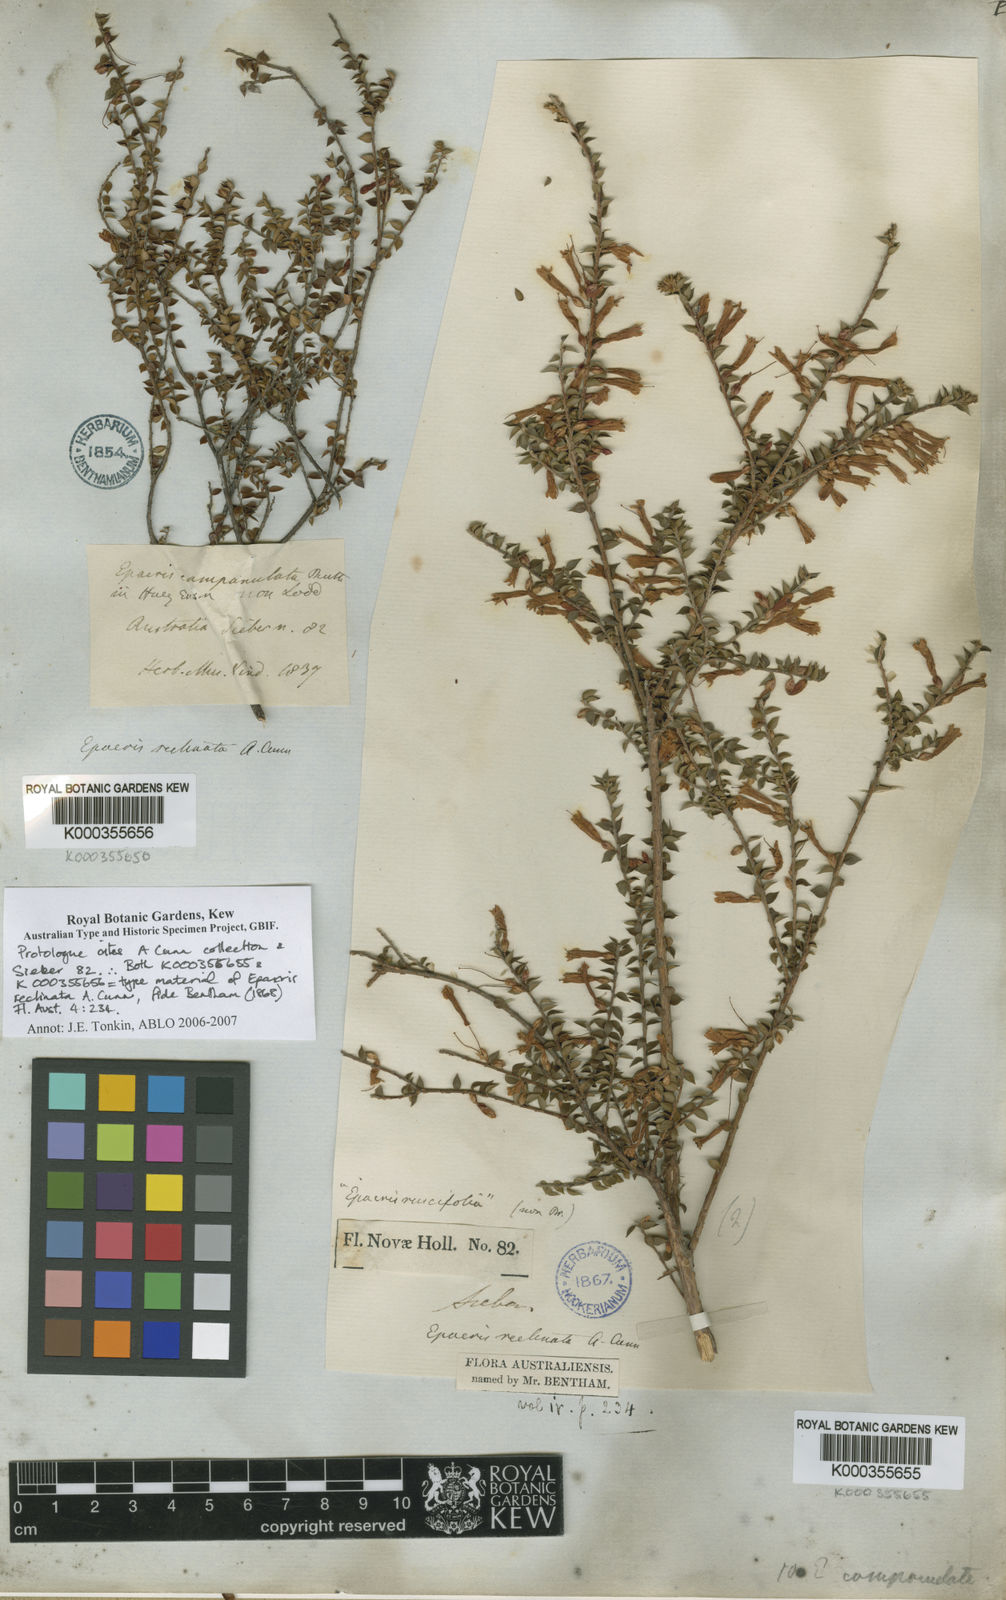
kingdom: Plantae
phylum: Tracheophyta
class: Magnoliopsida
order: Ericales
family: Ericaceae
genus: Epacris
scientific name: Epacris reclinata
